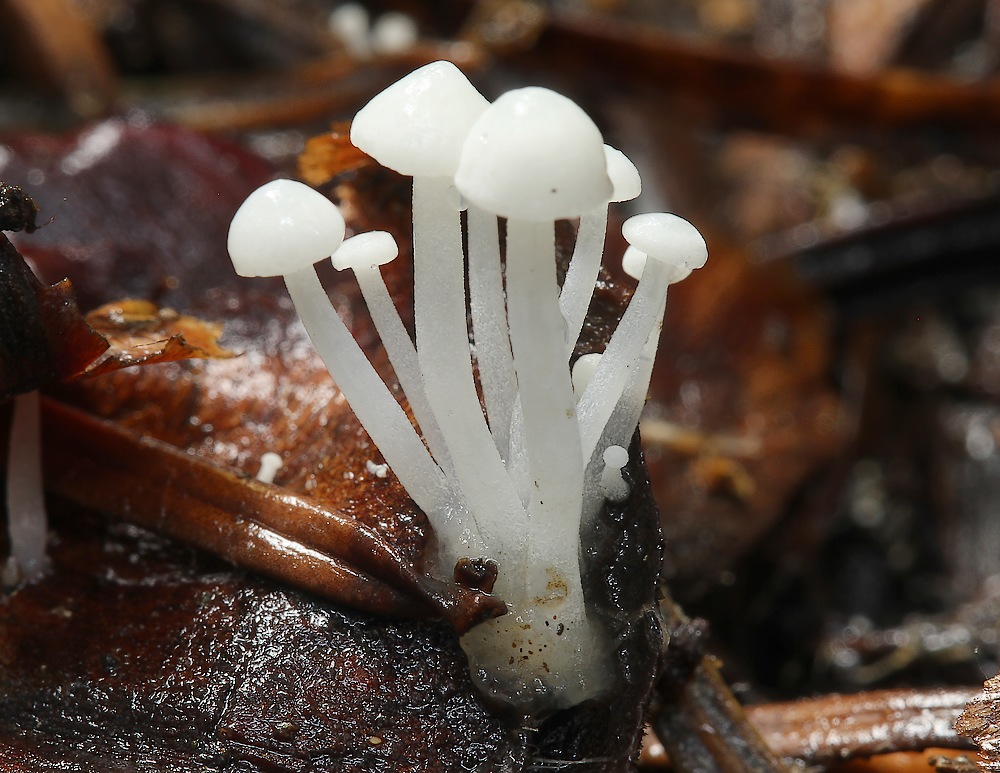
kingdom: Fungi
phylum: Basidiomycota
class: Agaricomycetes
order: Agaricales
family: Mycenaceae
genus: Hemimycena
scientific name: Hemimycena lactea
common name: mælkehvid huesvamp
